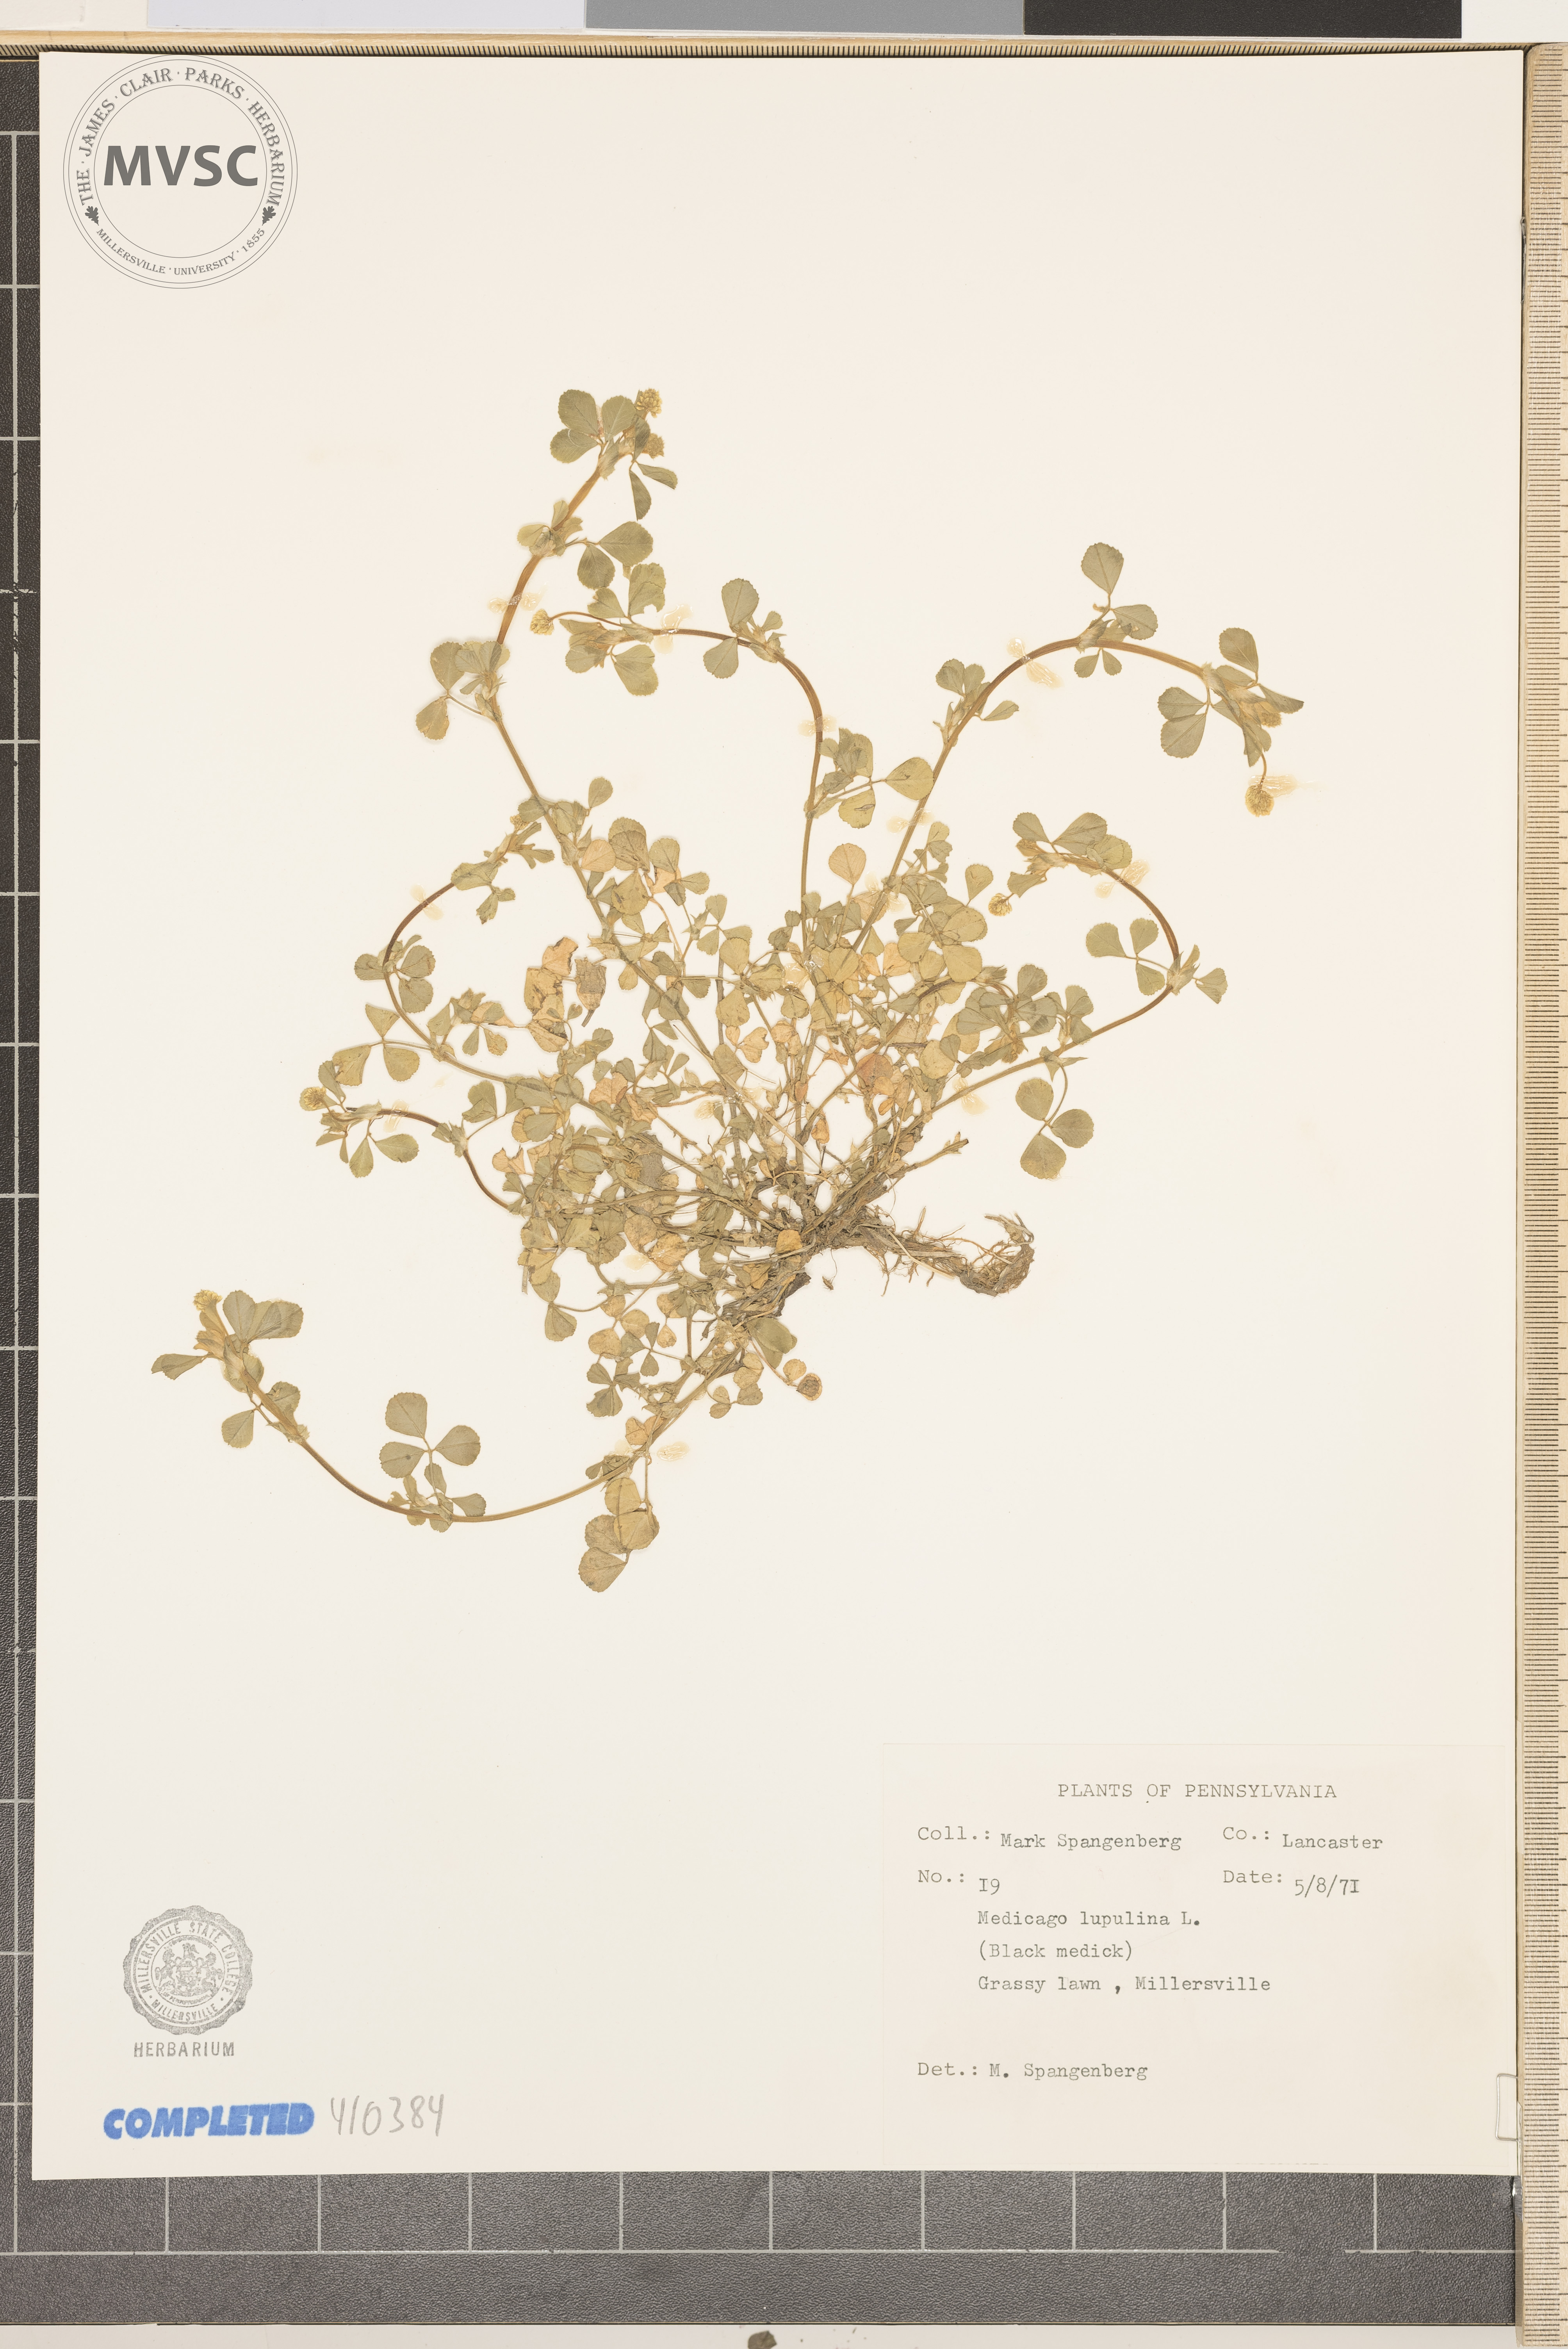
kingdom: Plantae
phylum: Tracheophyta
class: Magnoliopsida
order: Fabales
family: Fabaceae
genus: Medicago
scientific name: Medicago lupulina
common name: Black medick
